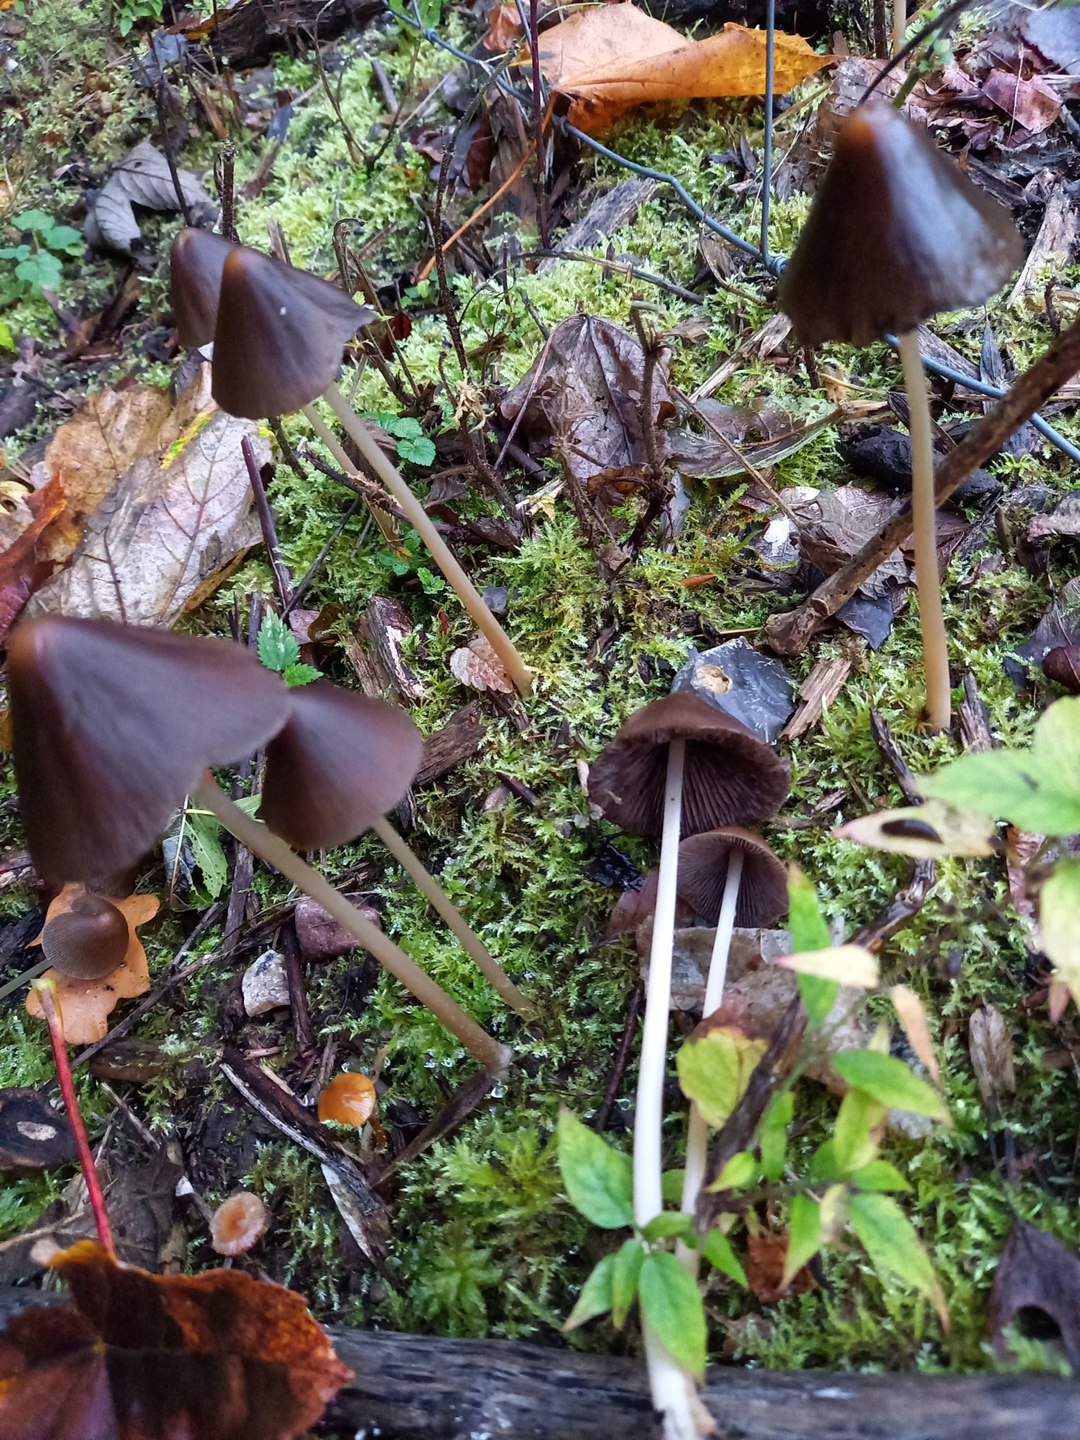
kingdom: Fungi
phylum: Basidiomycota
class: Agaricomycetes
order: Agaricales
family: Psathyrellaceae
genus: Parasola
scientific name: Parasola conopilea
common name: kegle-hjulhat
